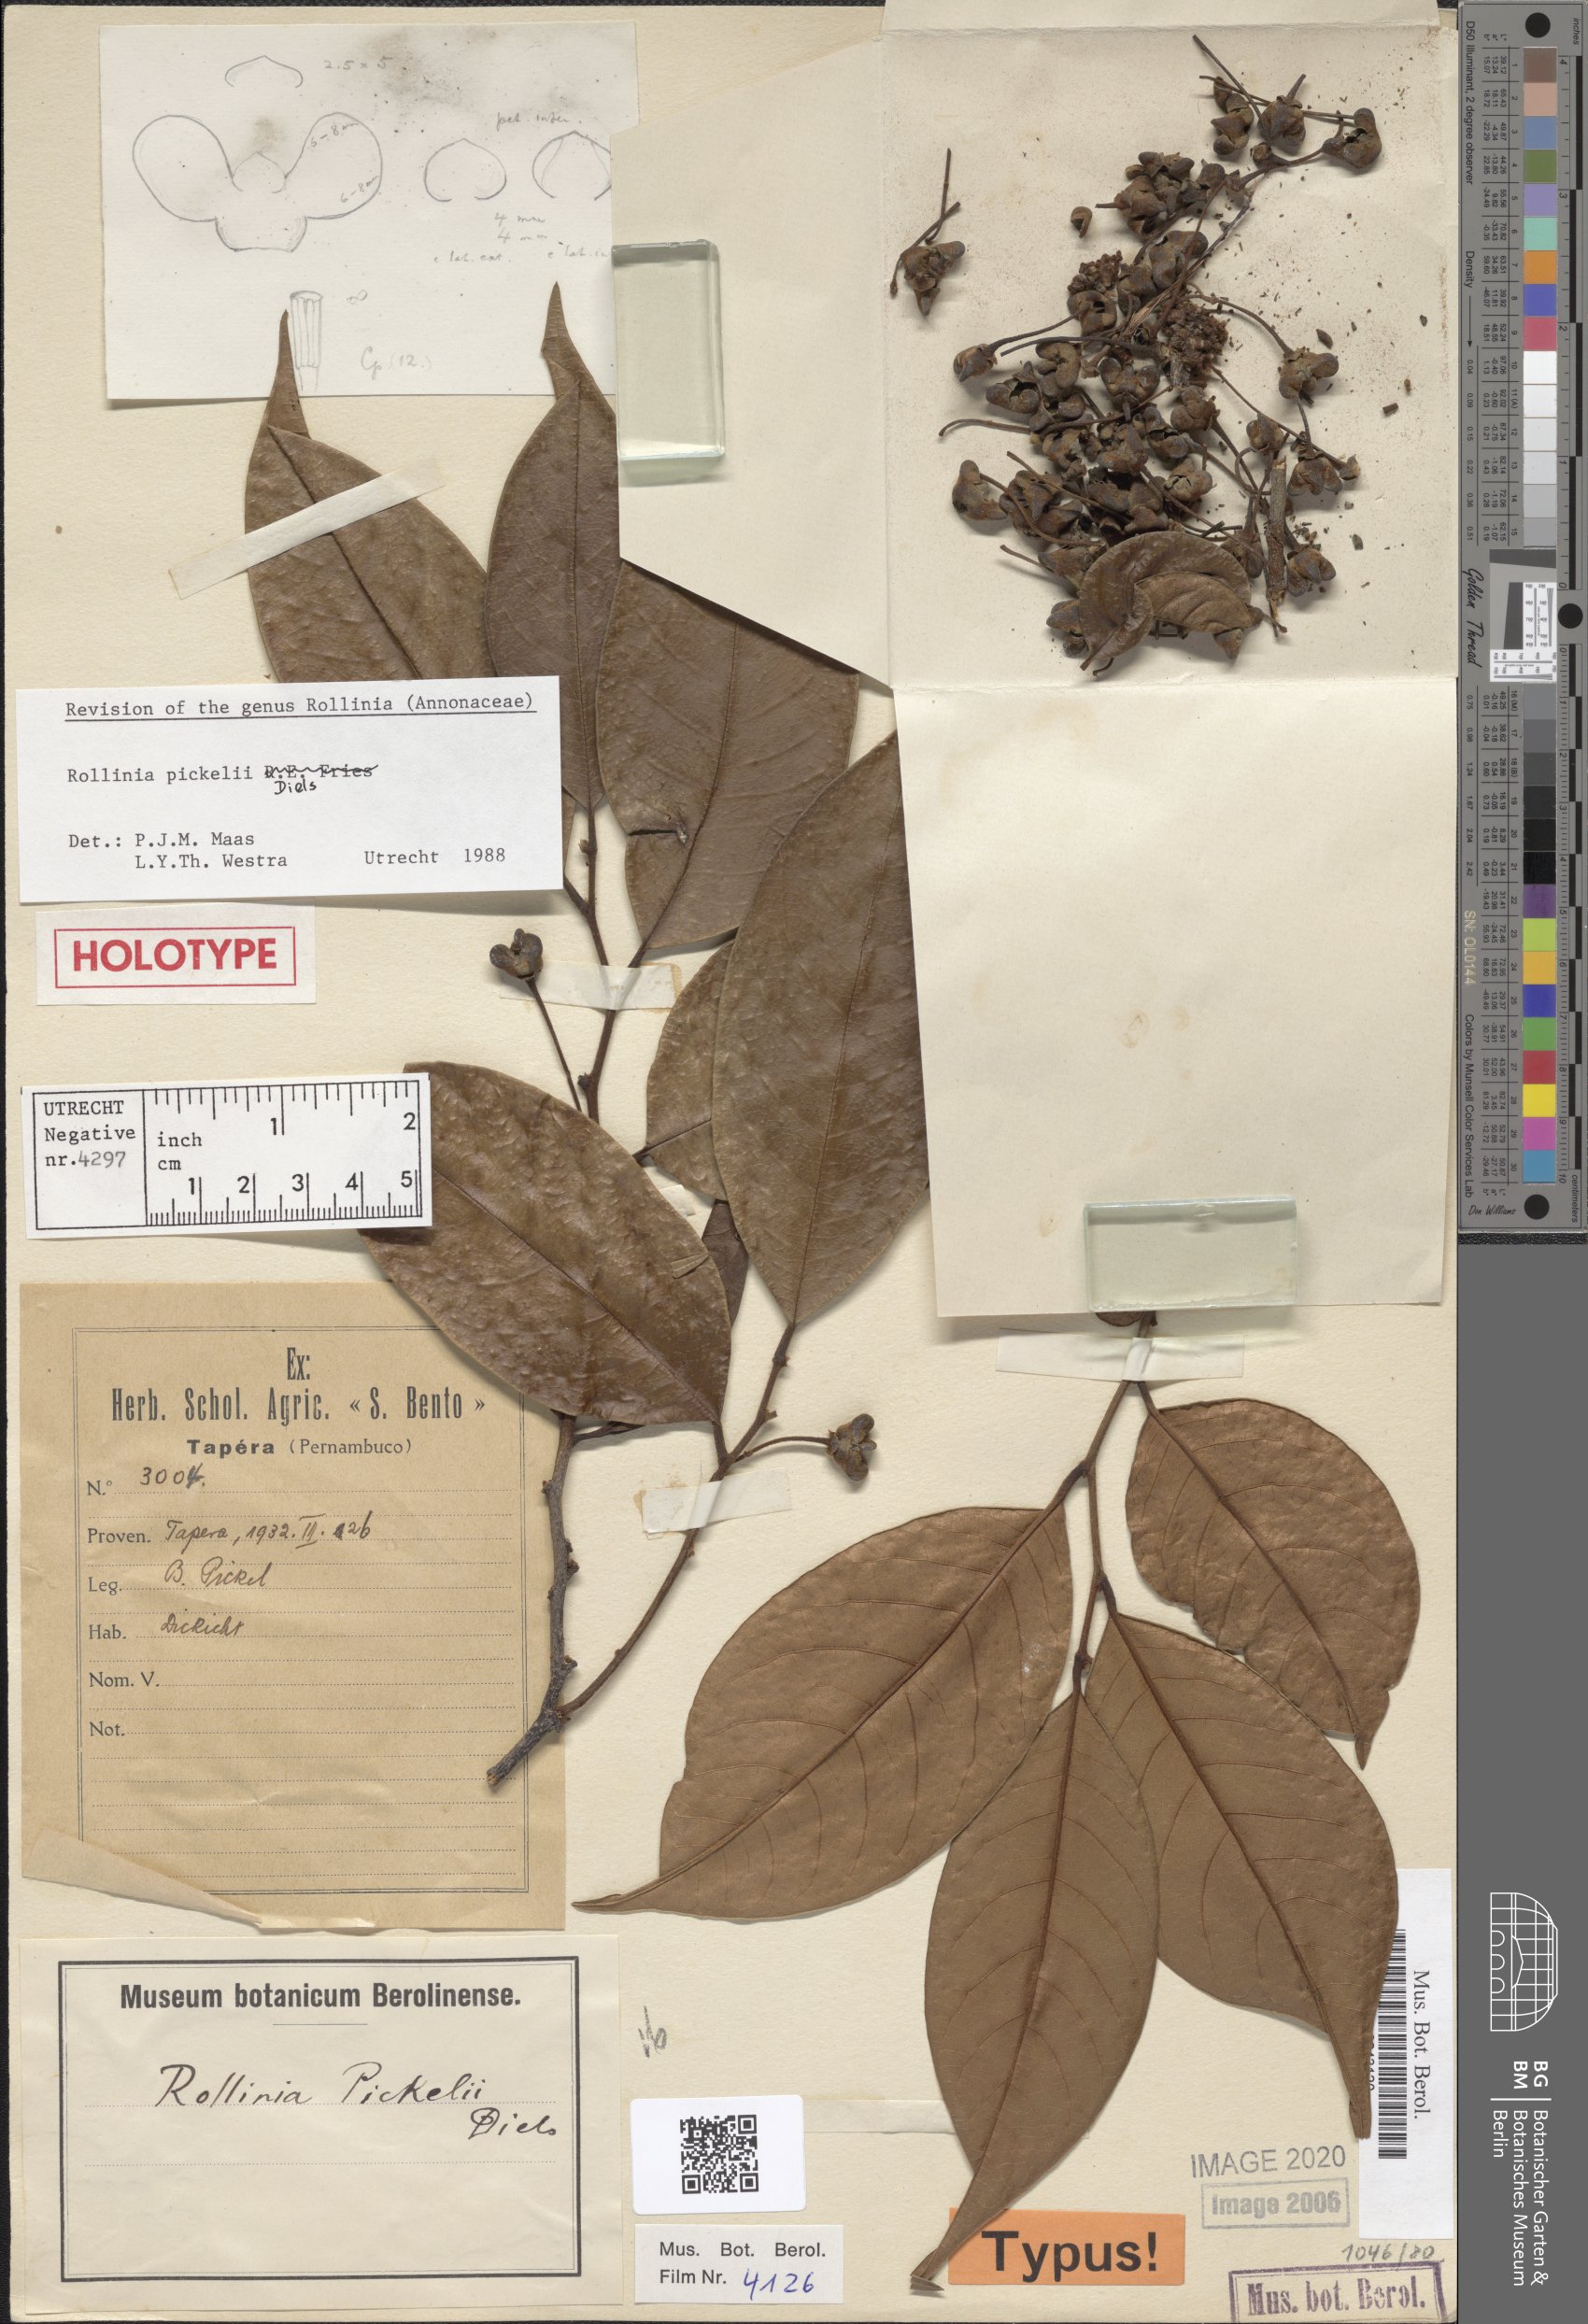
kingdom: Plantae
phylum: Tracheophyta
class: Magnoliopsida
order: Magnoliales
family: Annonaceae
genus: Annona
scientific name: Annona pickelii
